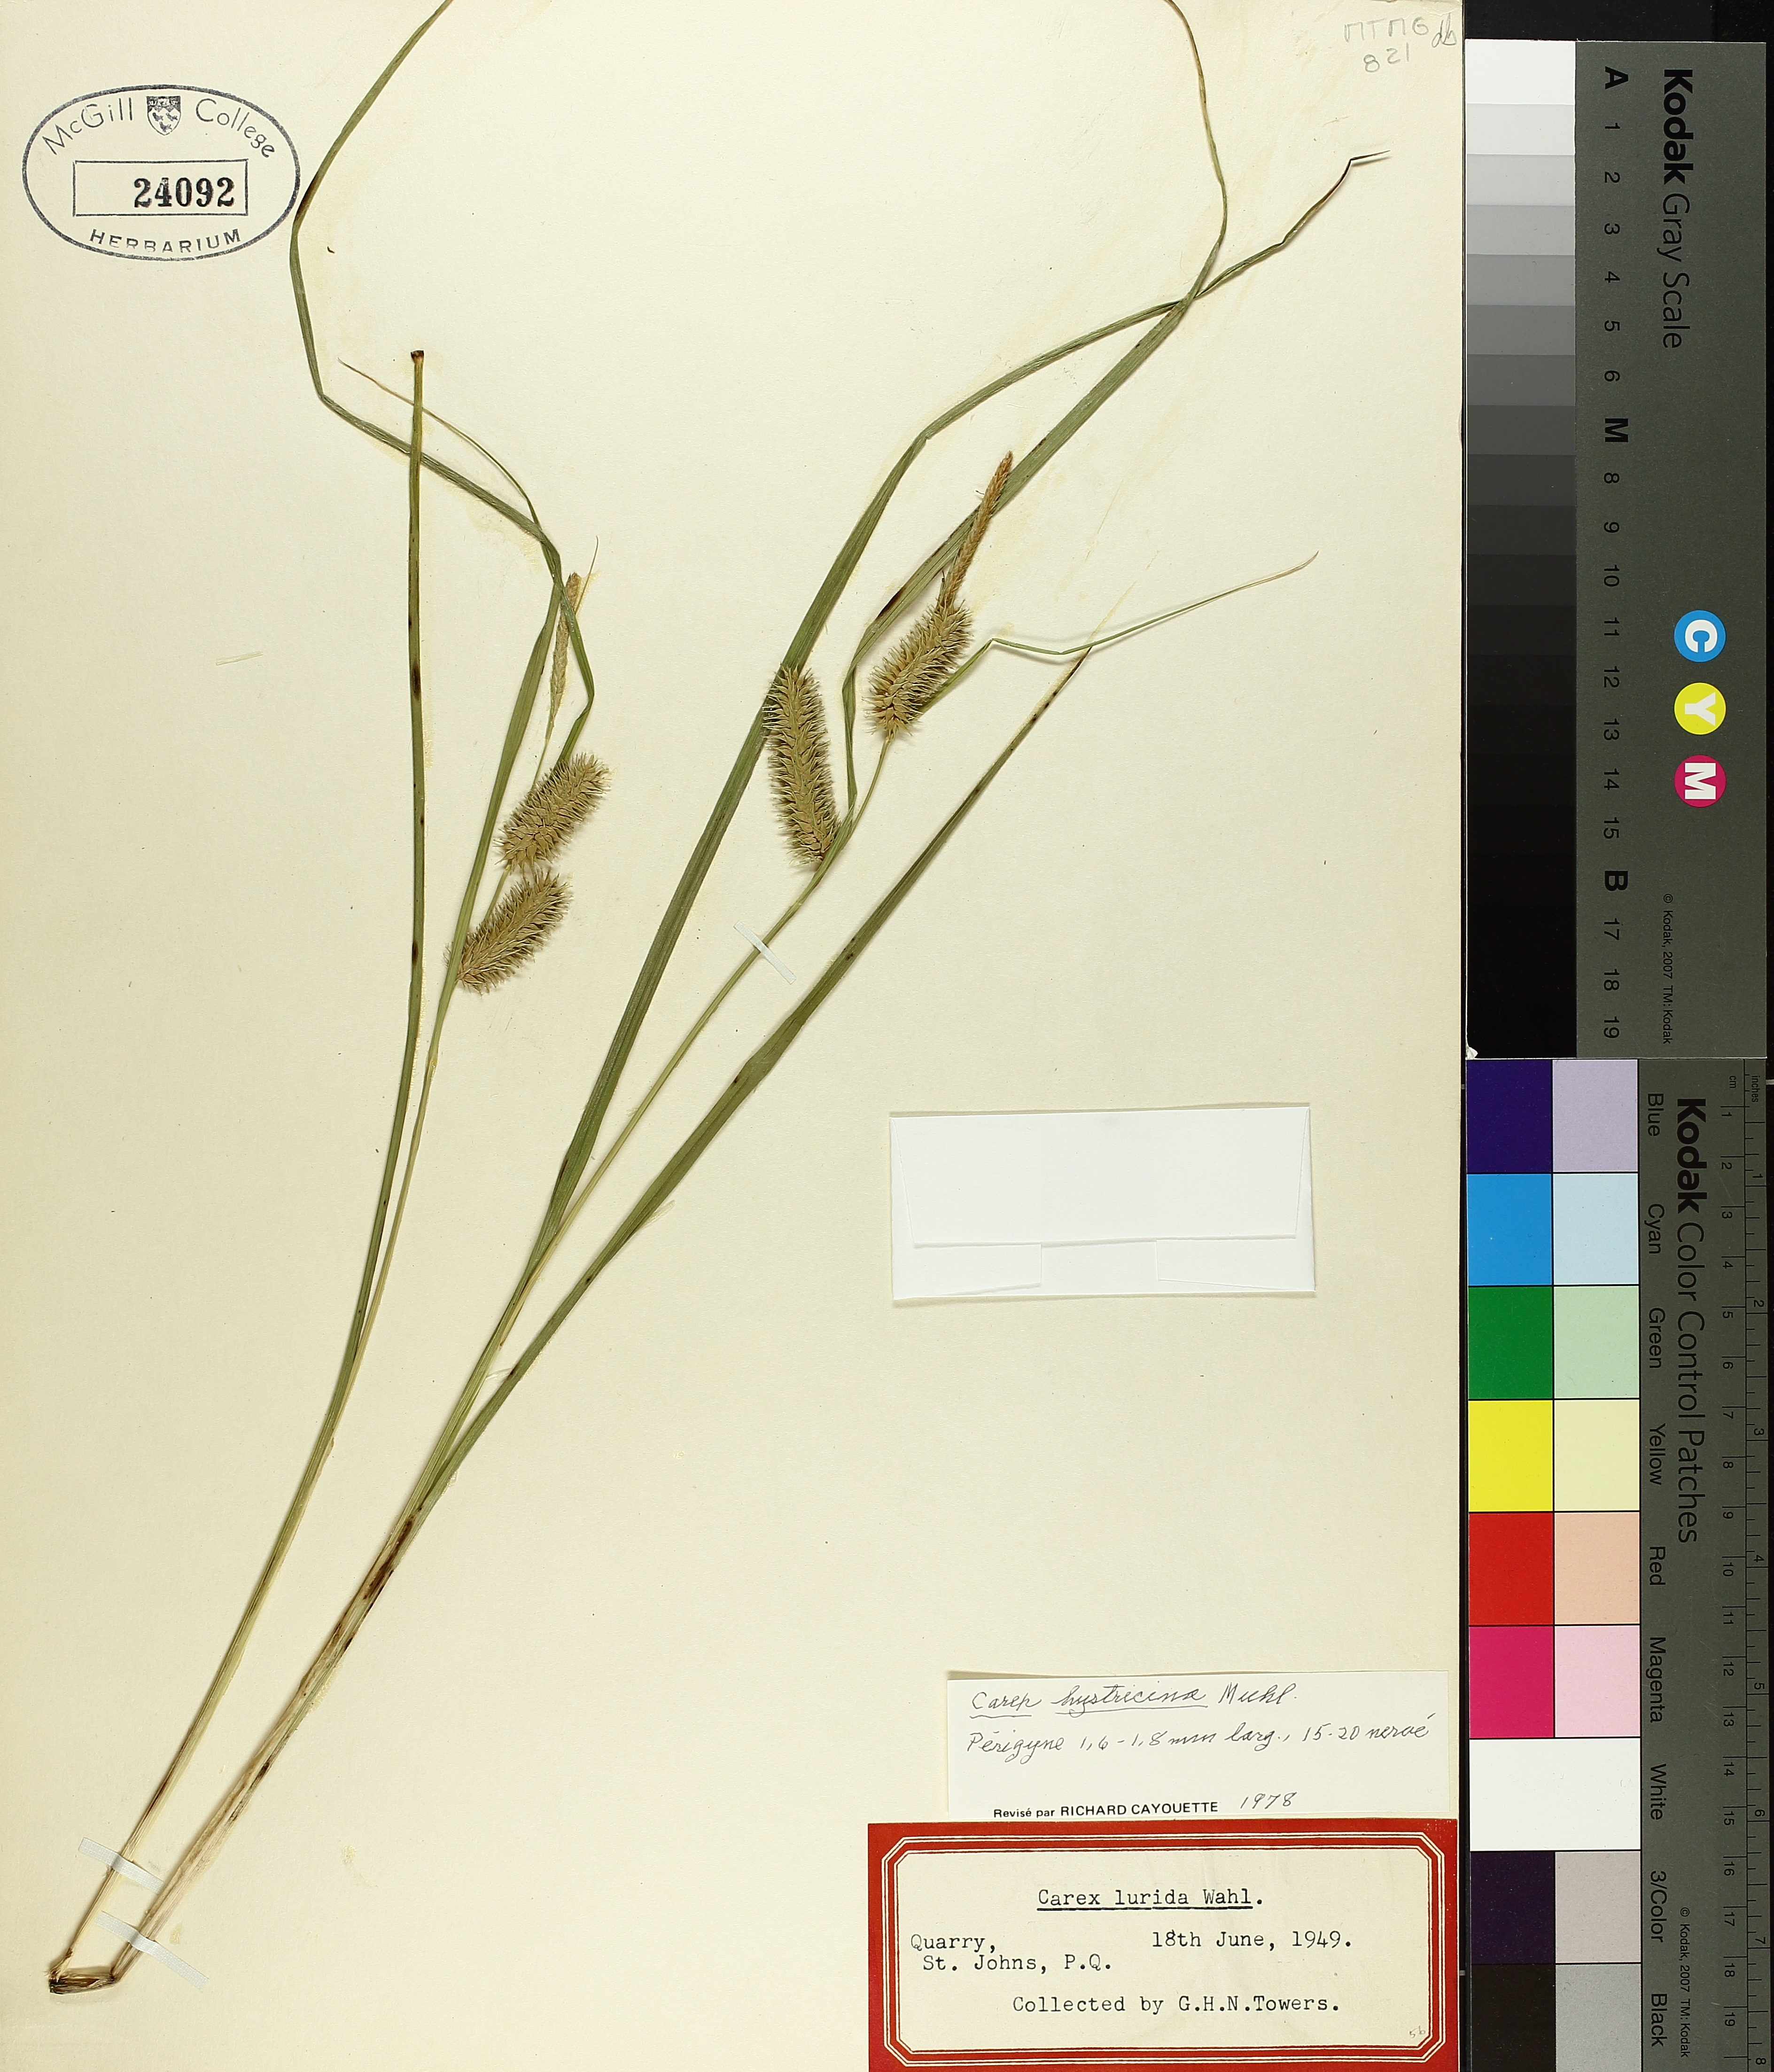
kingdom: Plantae
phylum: Tracheophyta
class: Liliopsida
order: Poales
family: Cyperaceae
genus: Carex
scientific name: Carex hystericina
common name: Bottlebrush sedge
